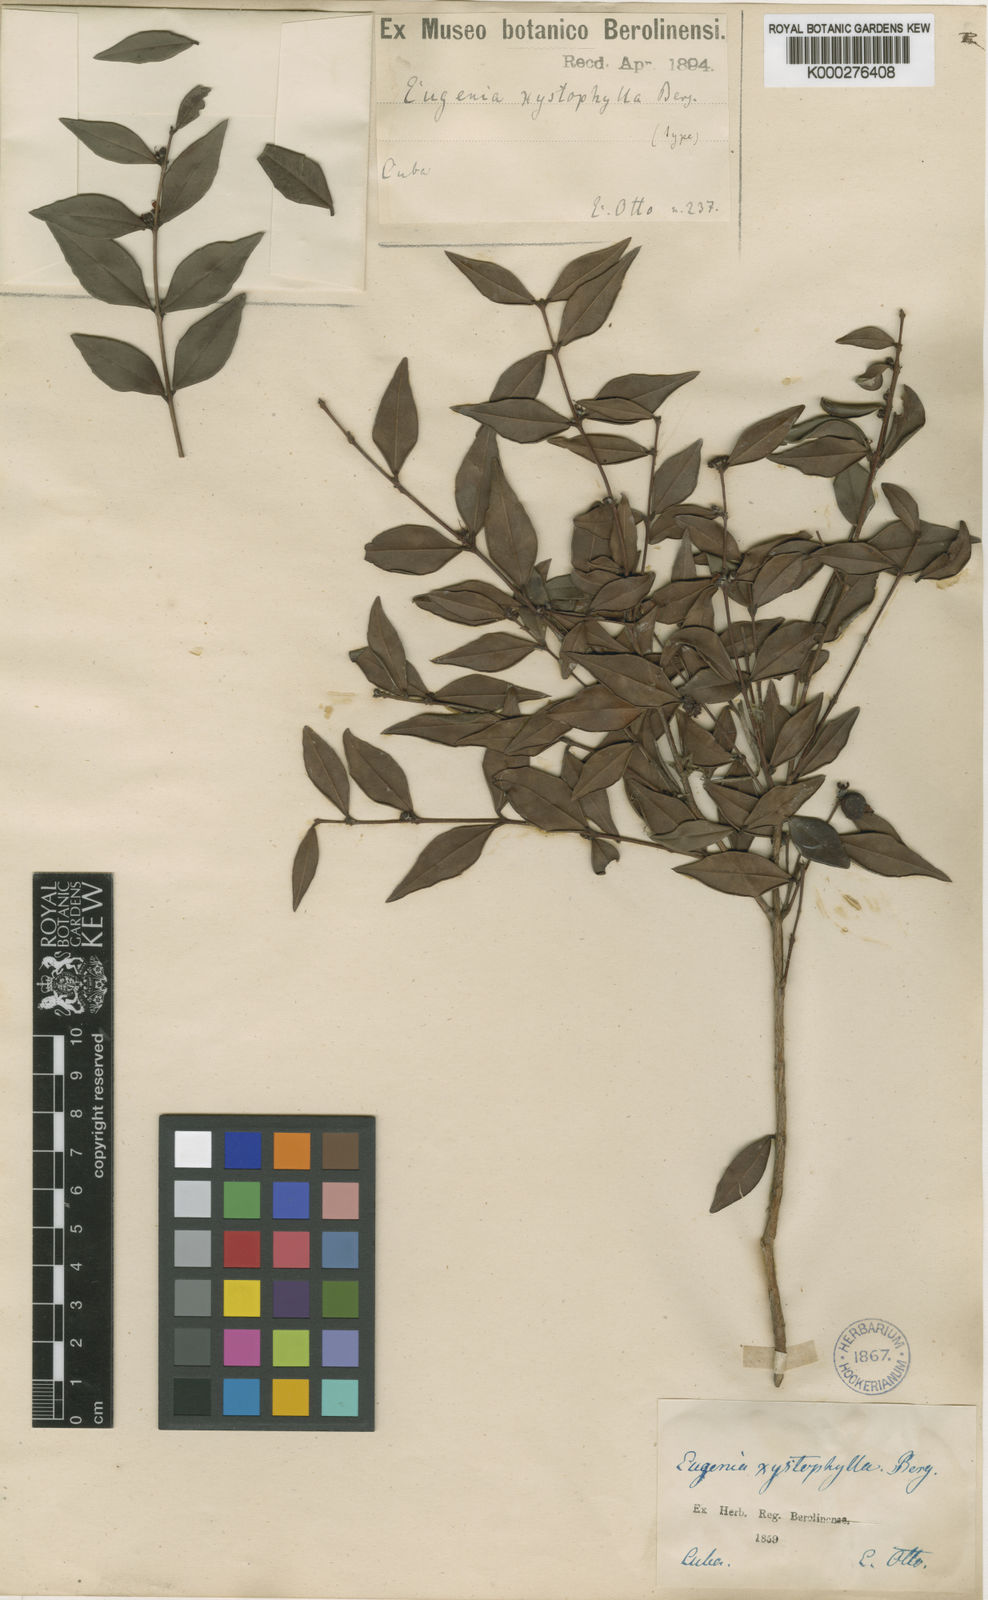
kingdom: Plantae
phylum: Tracheophyta
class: Magnoliopsida
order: Myrtales
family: Myrtaceae
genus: Eugenia
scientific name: Eugenia xystophylla
